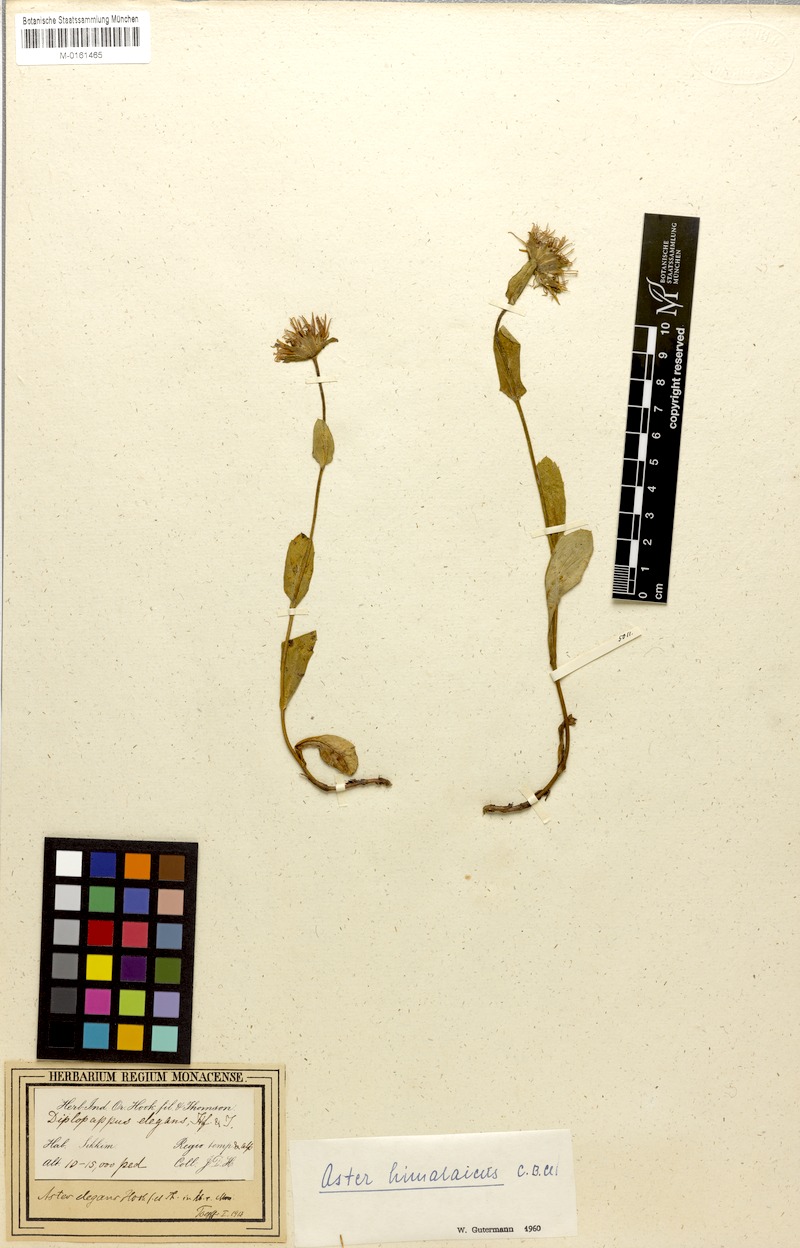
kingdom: Plantae
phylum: Tracheophyta
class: Magnoliopsida
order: Asterales
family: Asteraceae
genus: Tibetiodes
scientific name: Tibetiodes himalaica
